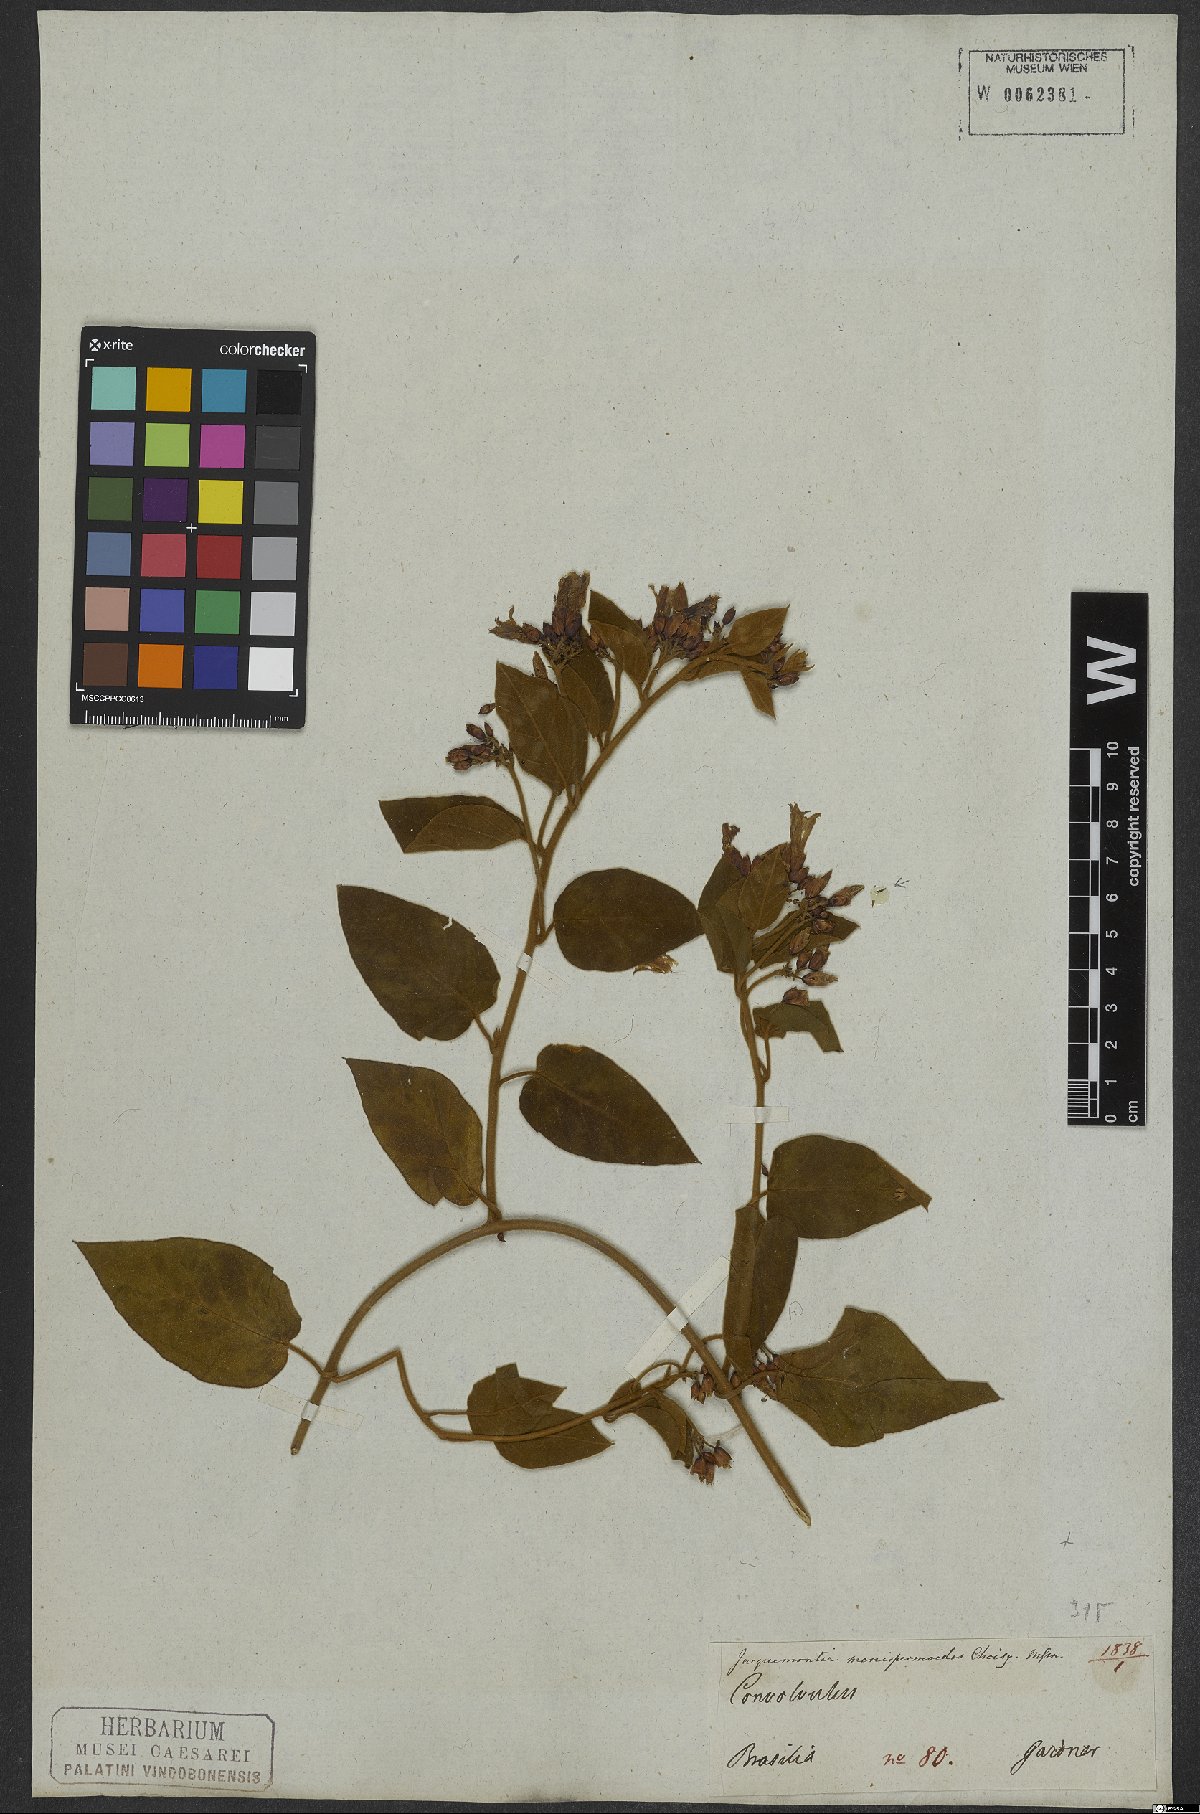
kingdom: Plantae
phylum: Tracheophyta
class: Magnoliopsida
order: Solanales
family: Convolvulaceae
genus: Jacquemontia
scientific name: Jacquemontia holosericea
